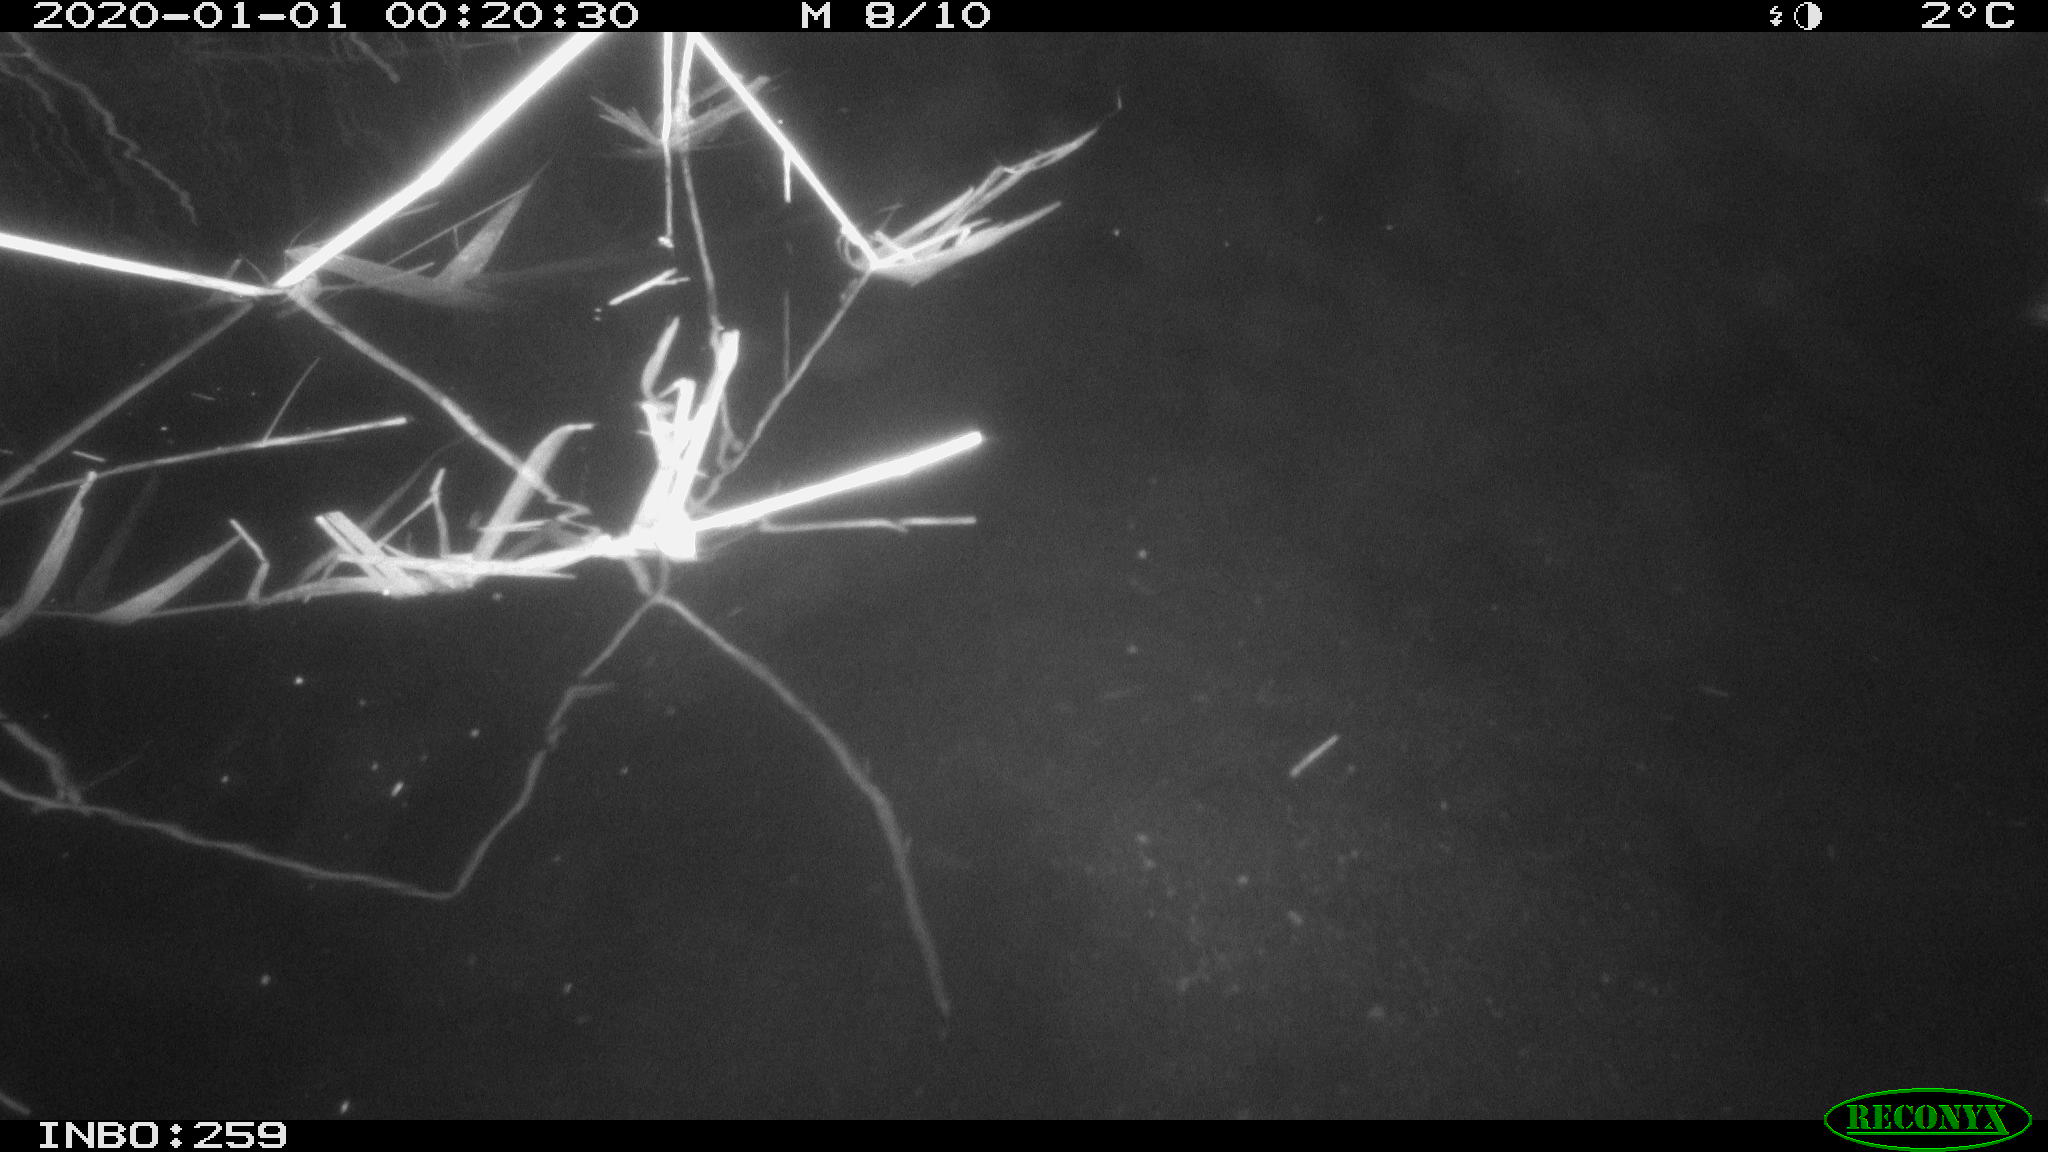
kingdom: Animalia
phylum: Chordata
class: Aves
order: Anseriformes
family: Anatidae
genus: Anas
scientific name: Anas platyrhynchos
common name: Mallard
